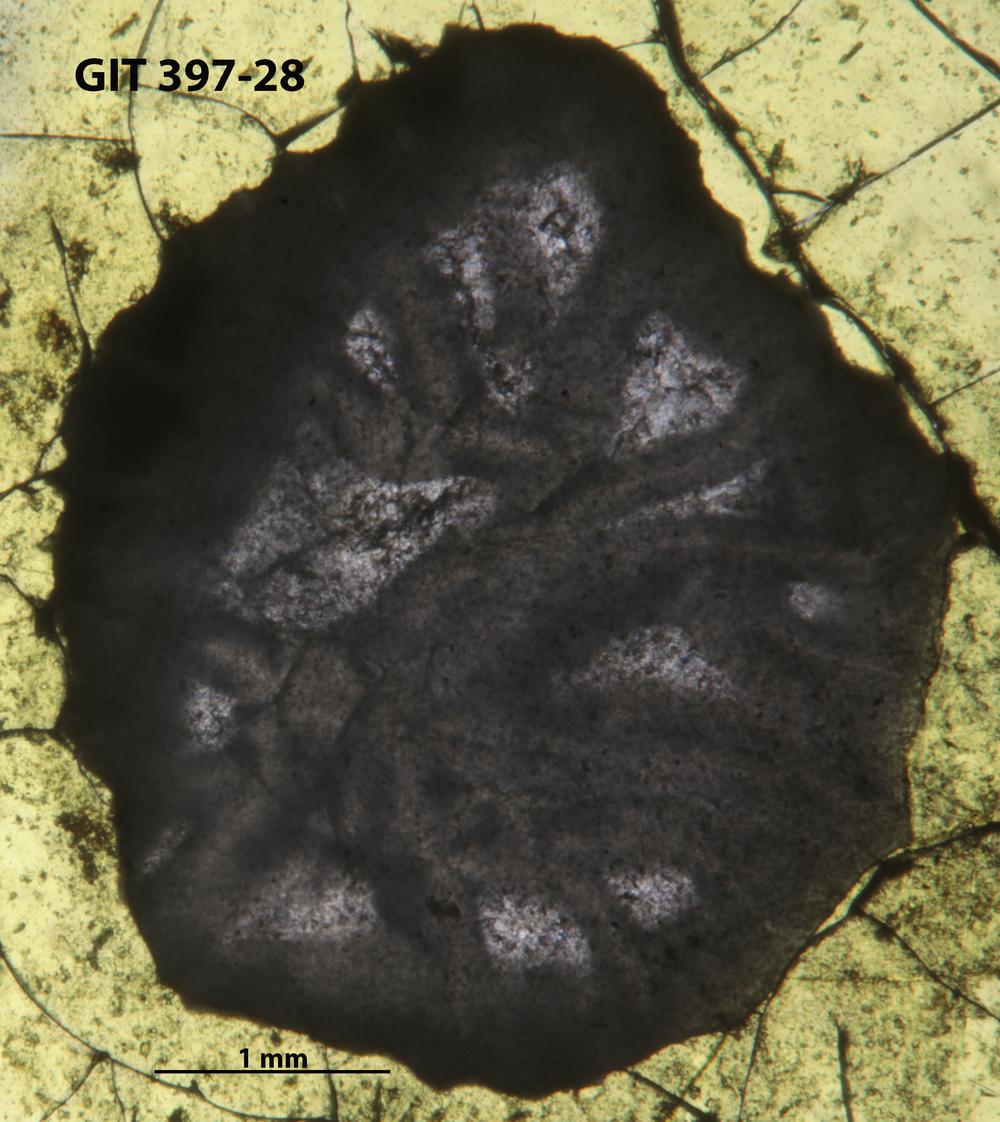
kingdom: Animalia
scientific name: Animalia
